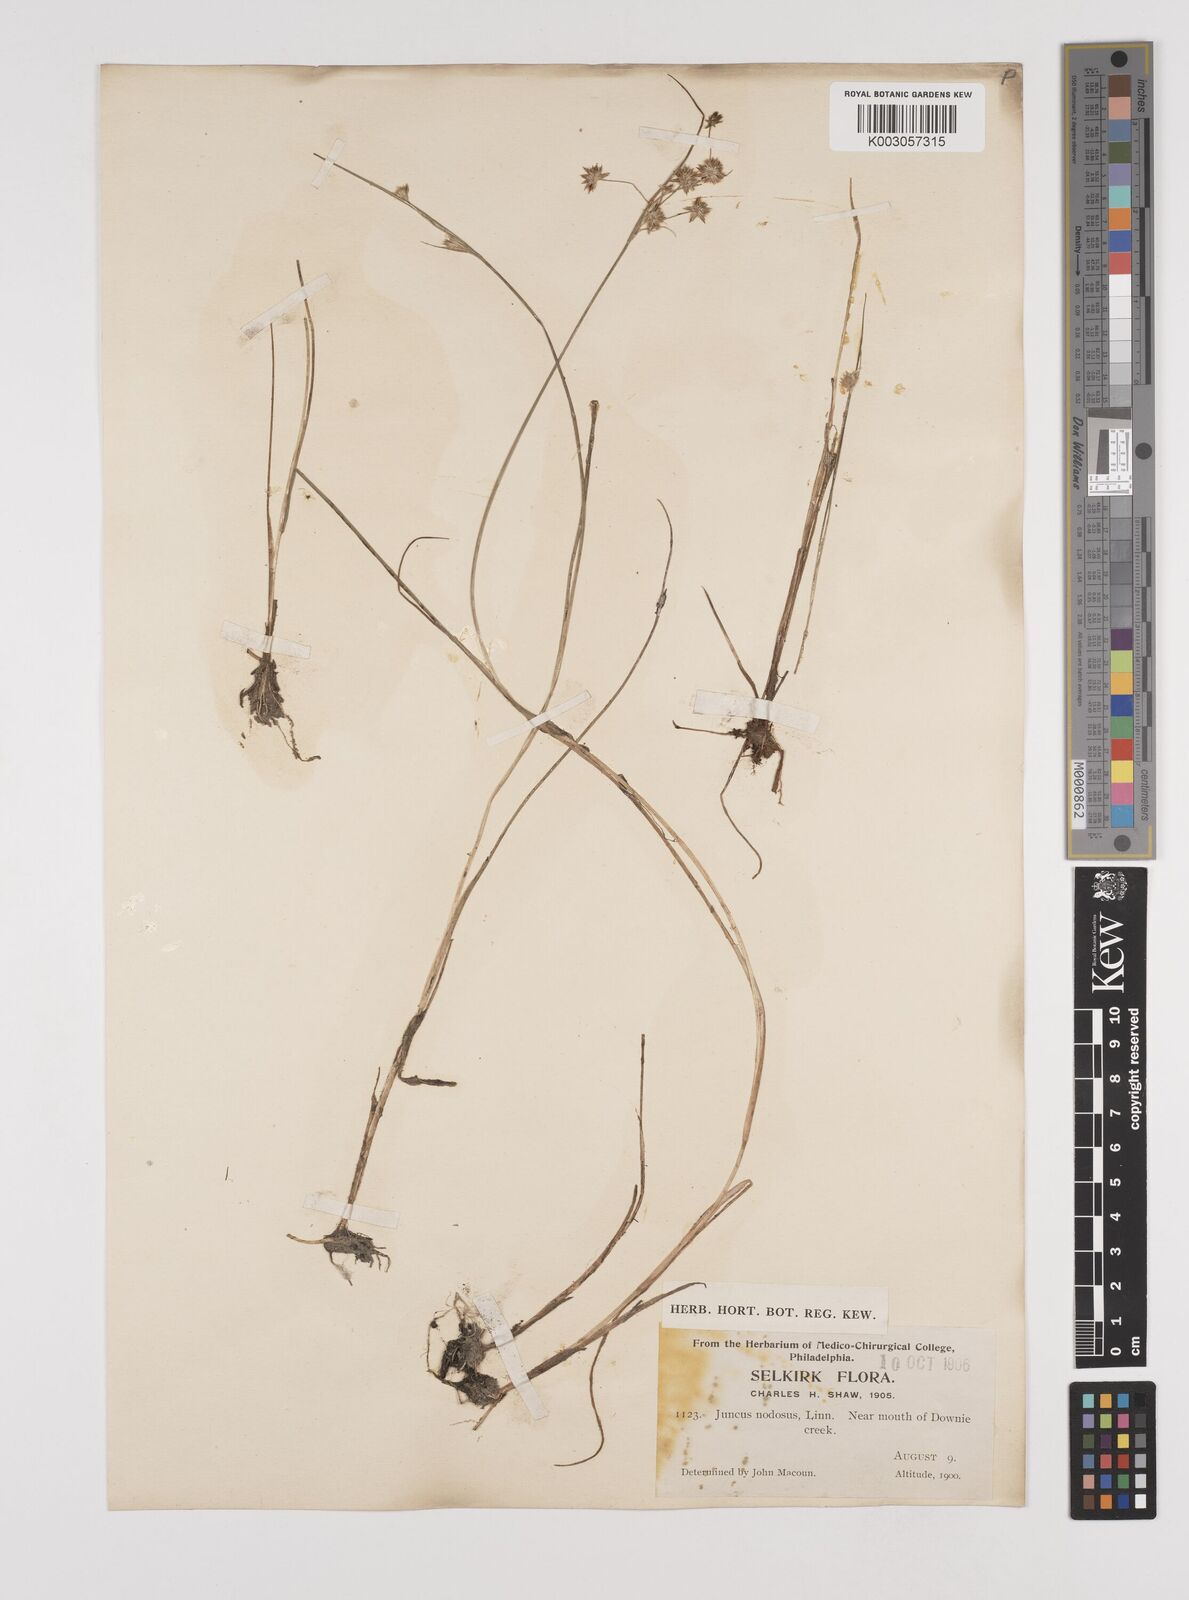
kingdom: Plantae
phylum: Tracheophyta
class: Liliopsida
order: Poales
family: Juncaceae
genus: Juncus
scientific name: Juncus nodosus
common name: Knotted rush
